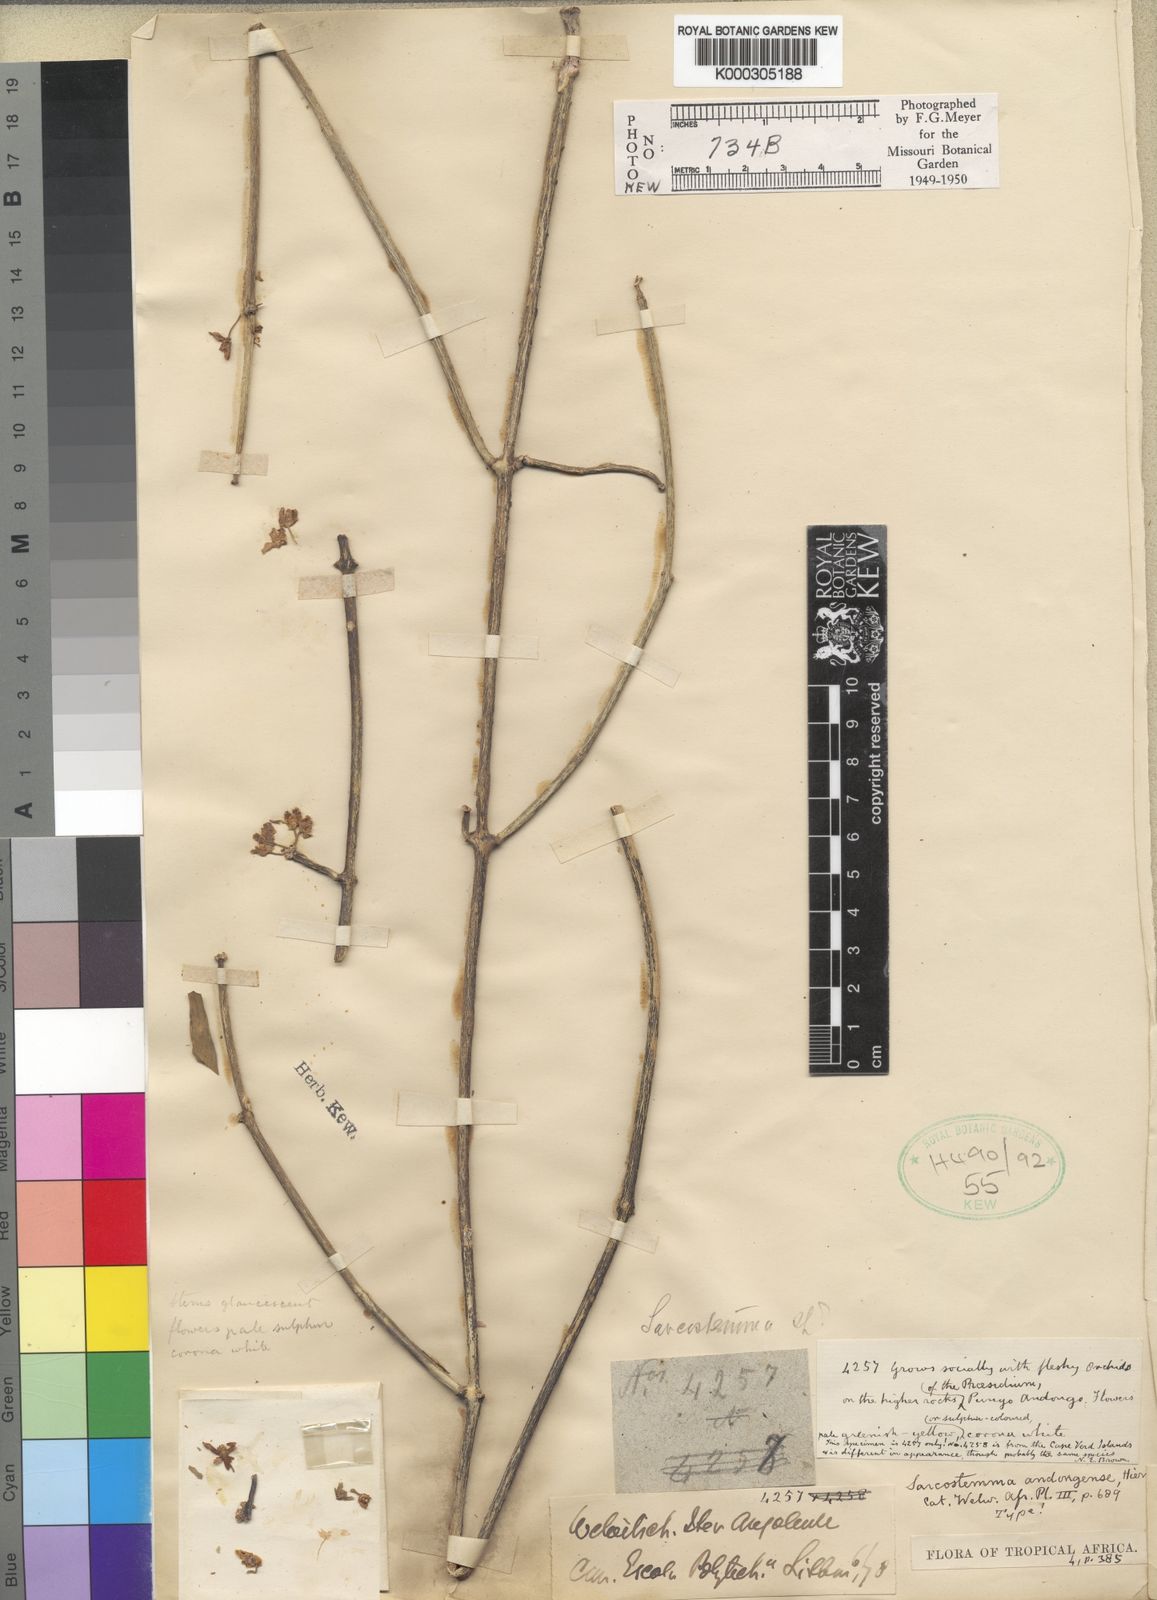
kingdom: Plantae
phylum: Tracheophyta
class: Magnoliopsida
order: Gentianales
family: Apocynaceae
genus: Cynanchum
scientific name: Cynanchum viminale
